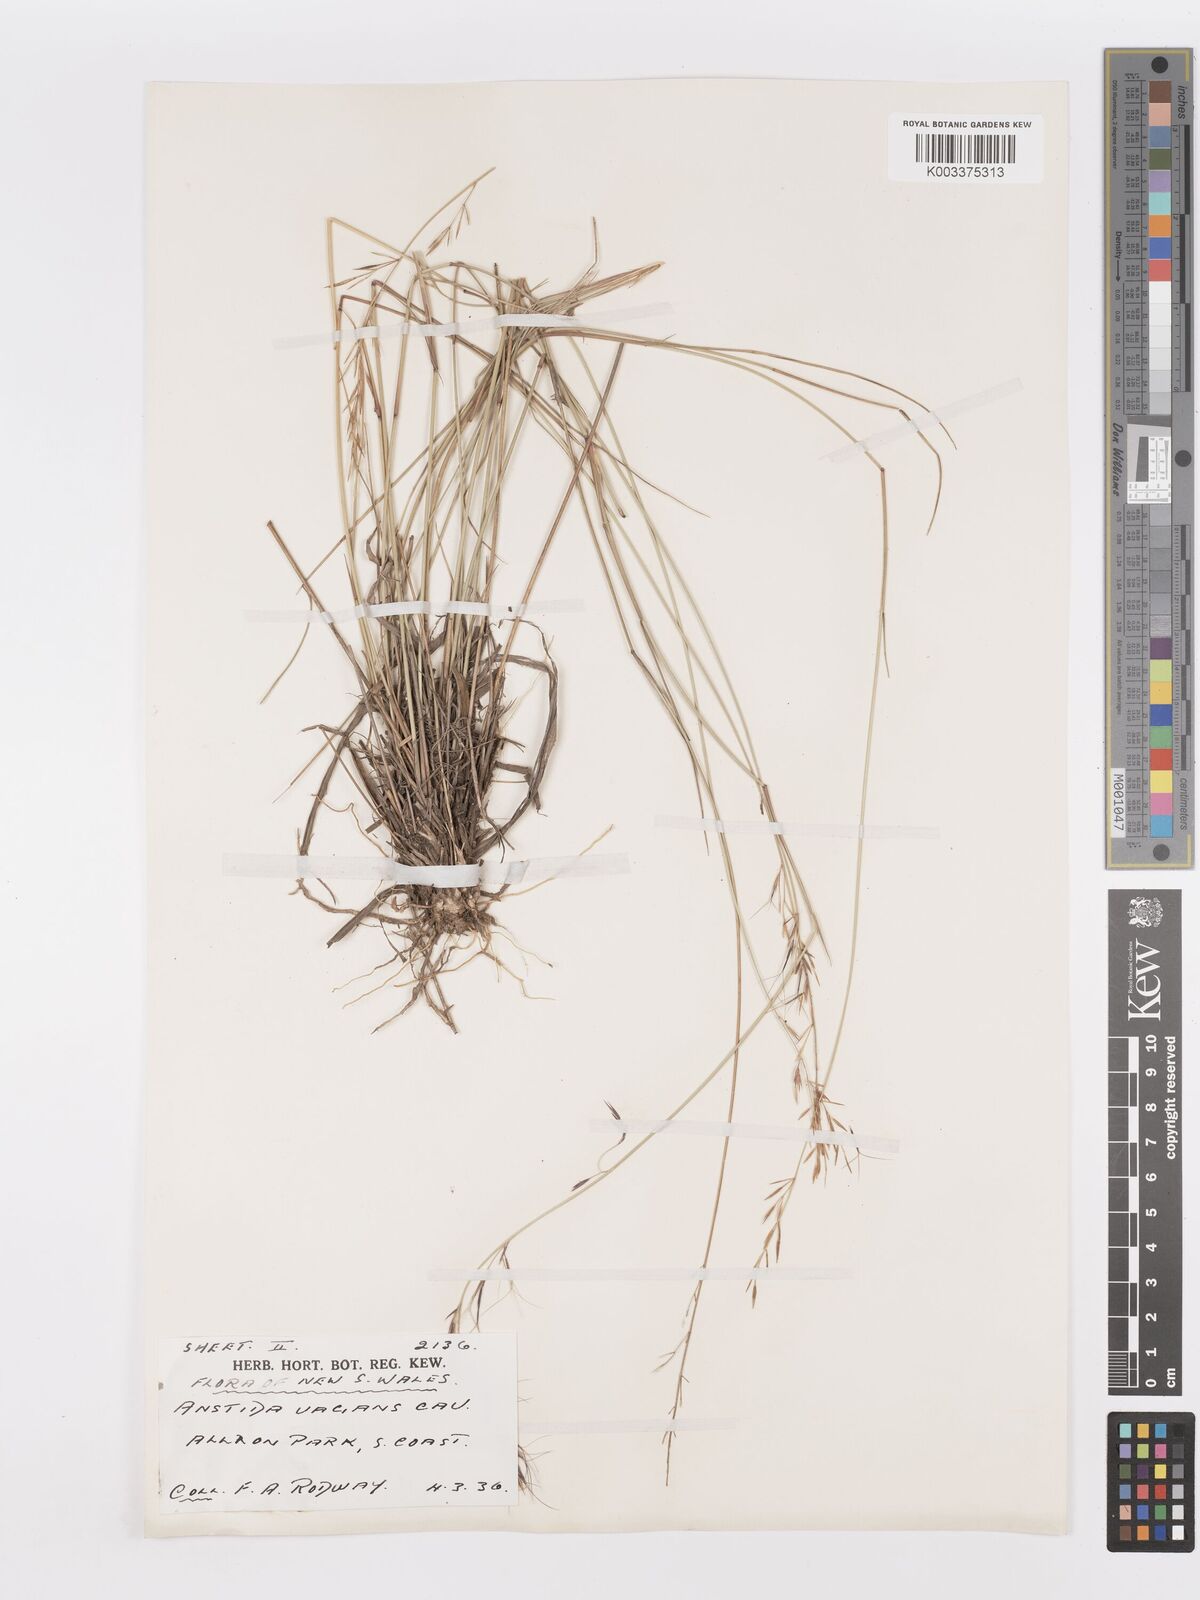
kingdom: Plantae
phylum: Tracheophyta
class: Liliopsida
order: Poales
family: Poaceae
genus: Aristida
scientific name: Aristida vagans
